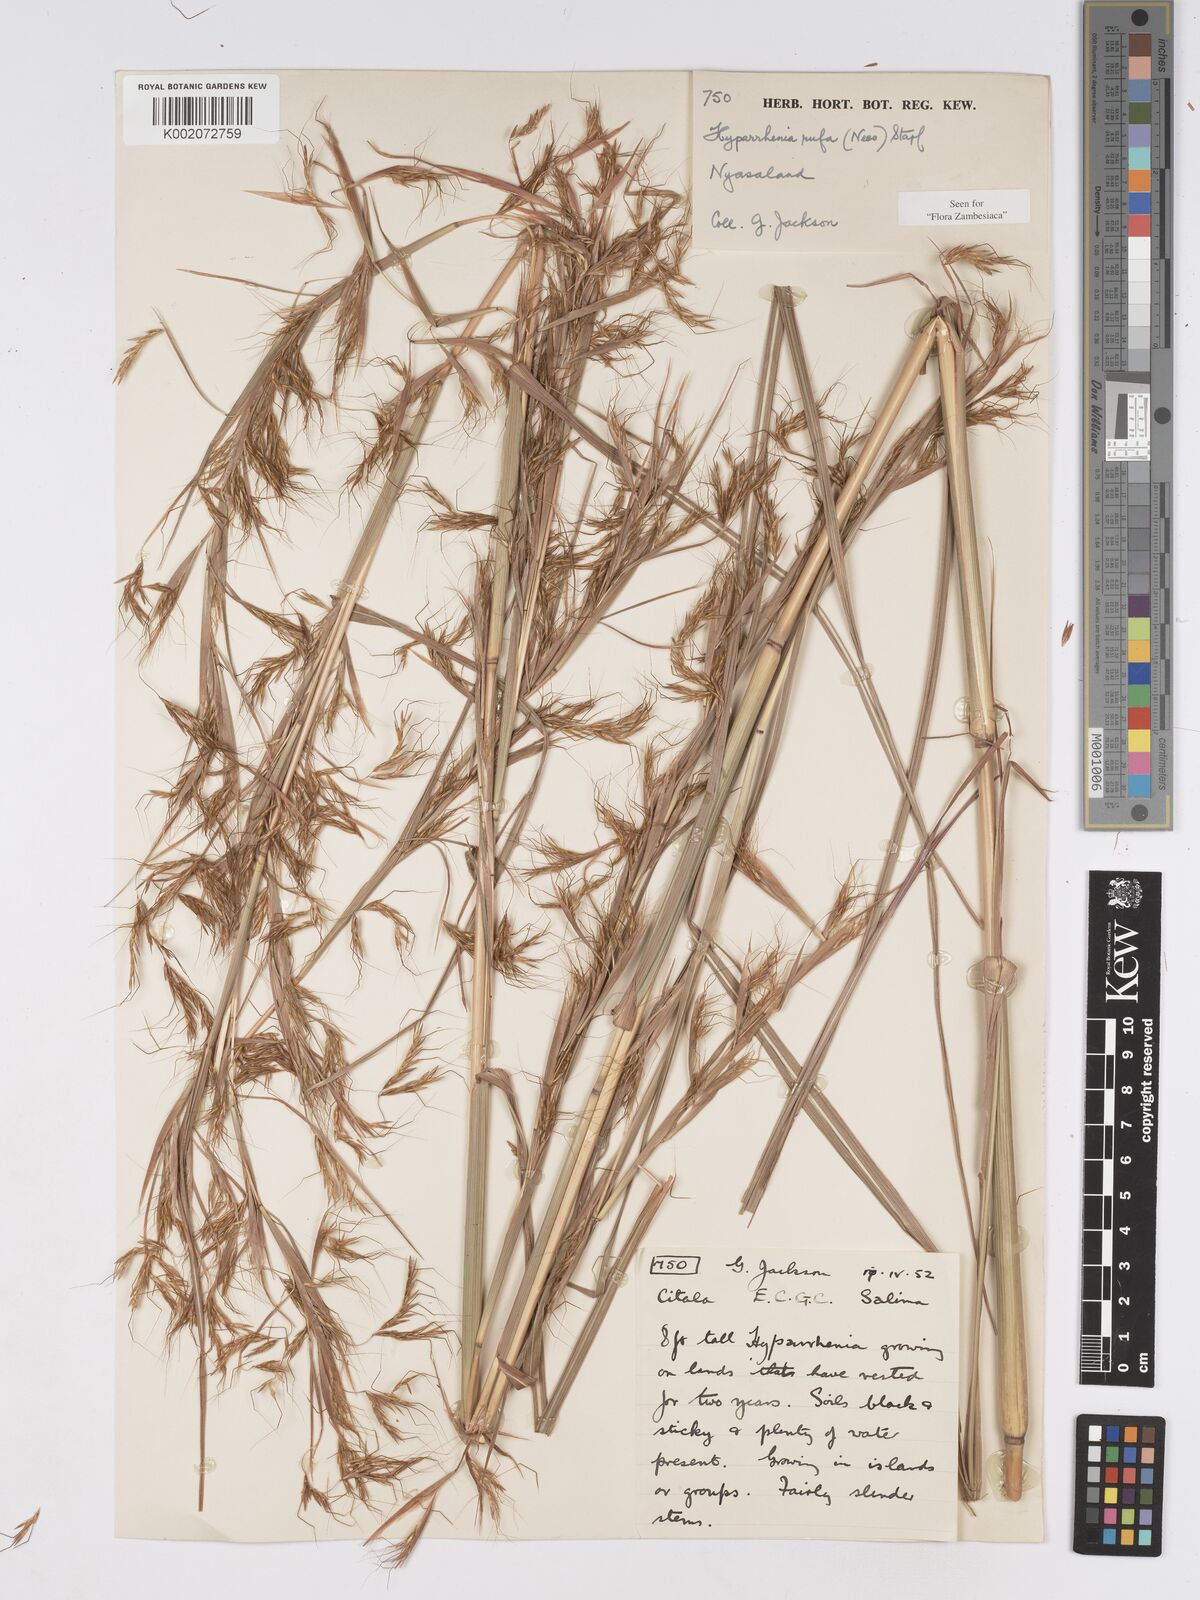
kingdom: Plantae
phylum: Tracheophyta
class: Liliopsida
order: Poales
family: Poaceae
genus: Hyparrhenia
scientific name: Hyparrhenia rufa
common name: Jaraguagrass
